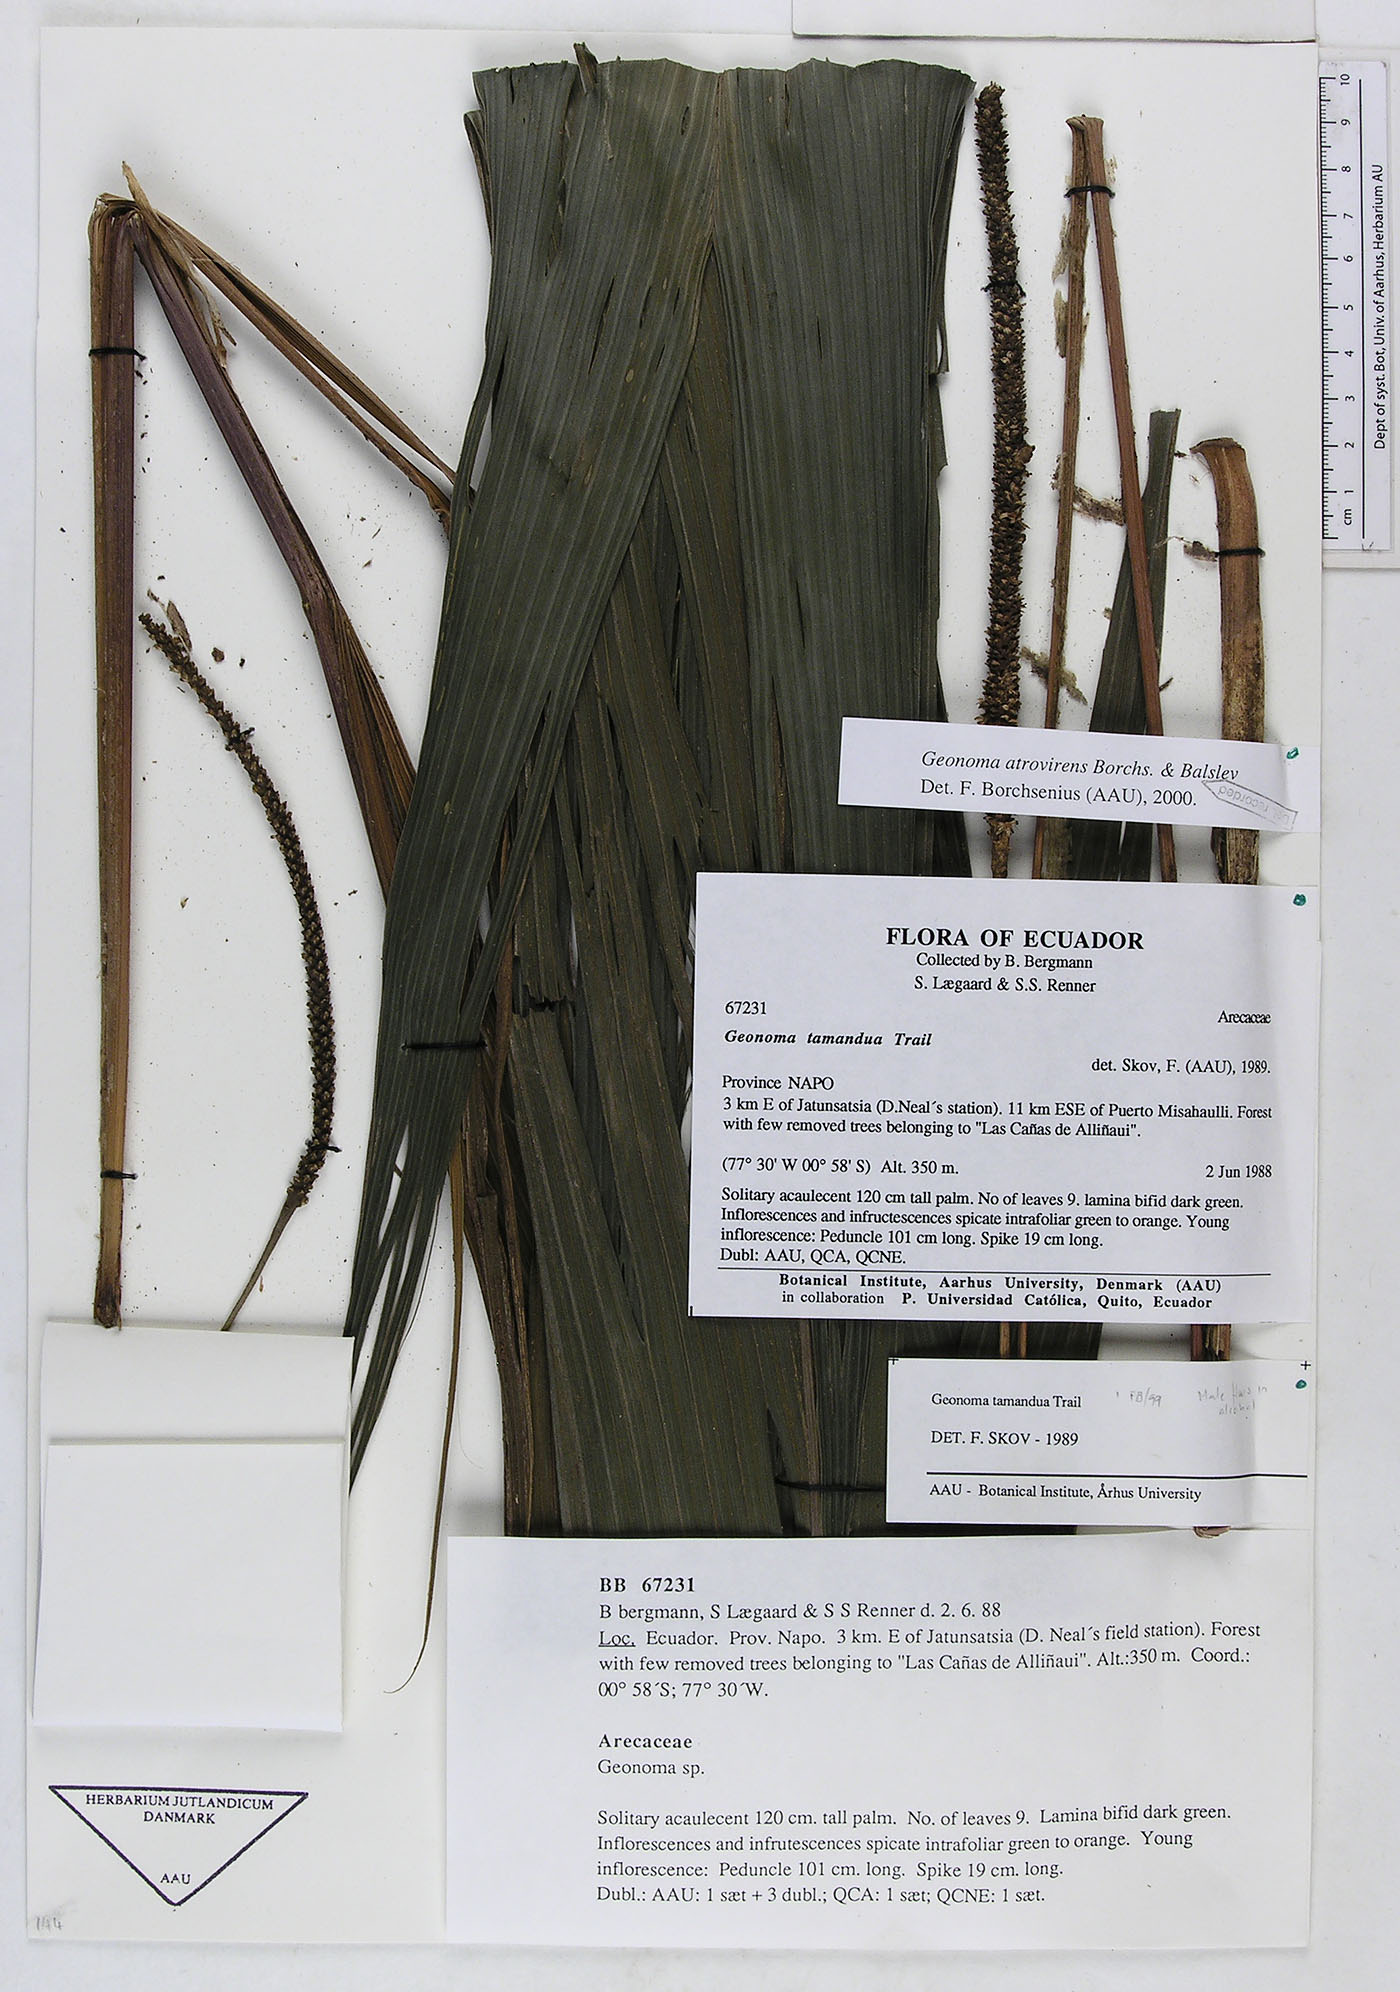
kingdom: Plantae
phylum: Tracheophyta
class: Liliopsida
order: Arecales
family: Arecaceae
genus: Geonoma
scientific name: Geonoma macrostachys
